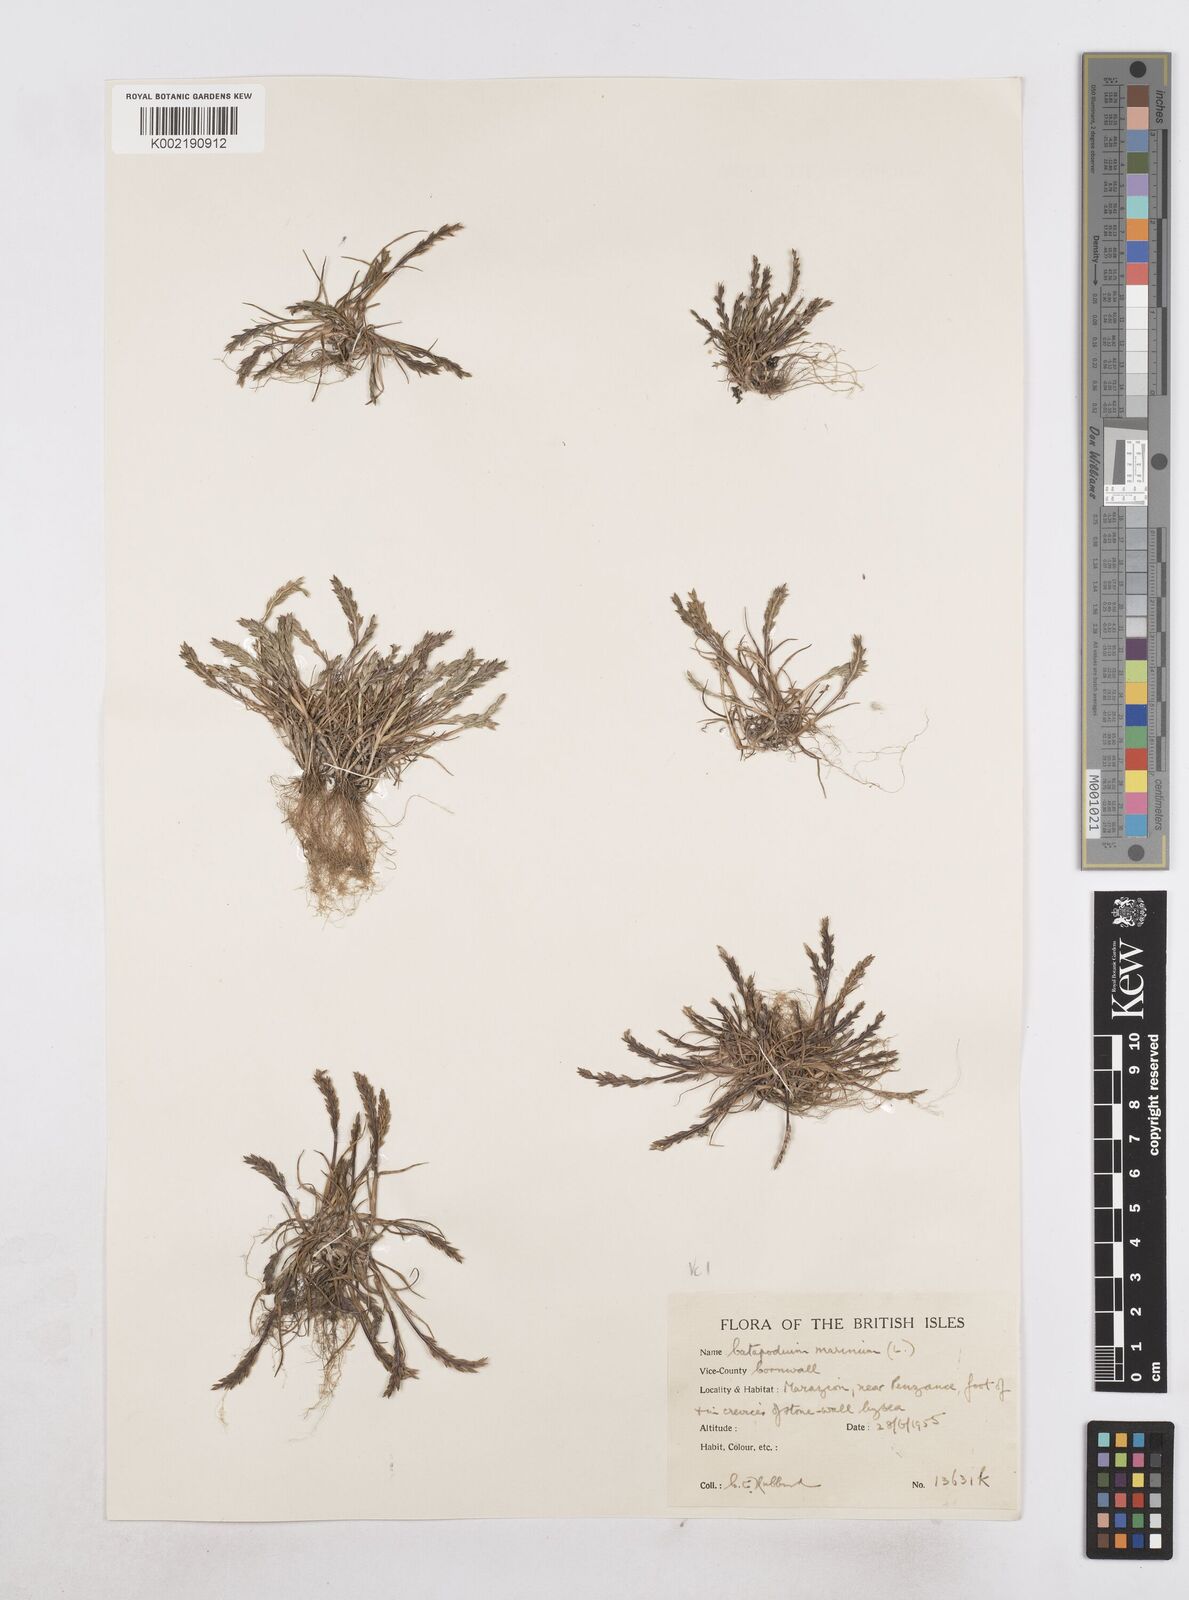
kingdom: Plantae
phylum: Tracheophyta
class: Liliopsida
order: Poales
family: Poaceae
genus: Catapodium
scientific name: Catapodium marinum
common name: Sea fern-grass
